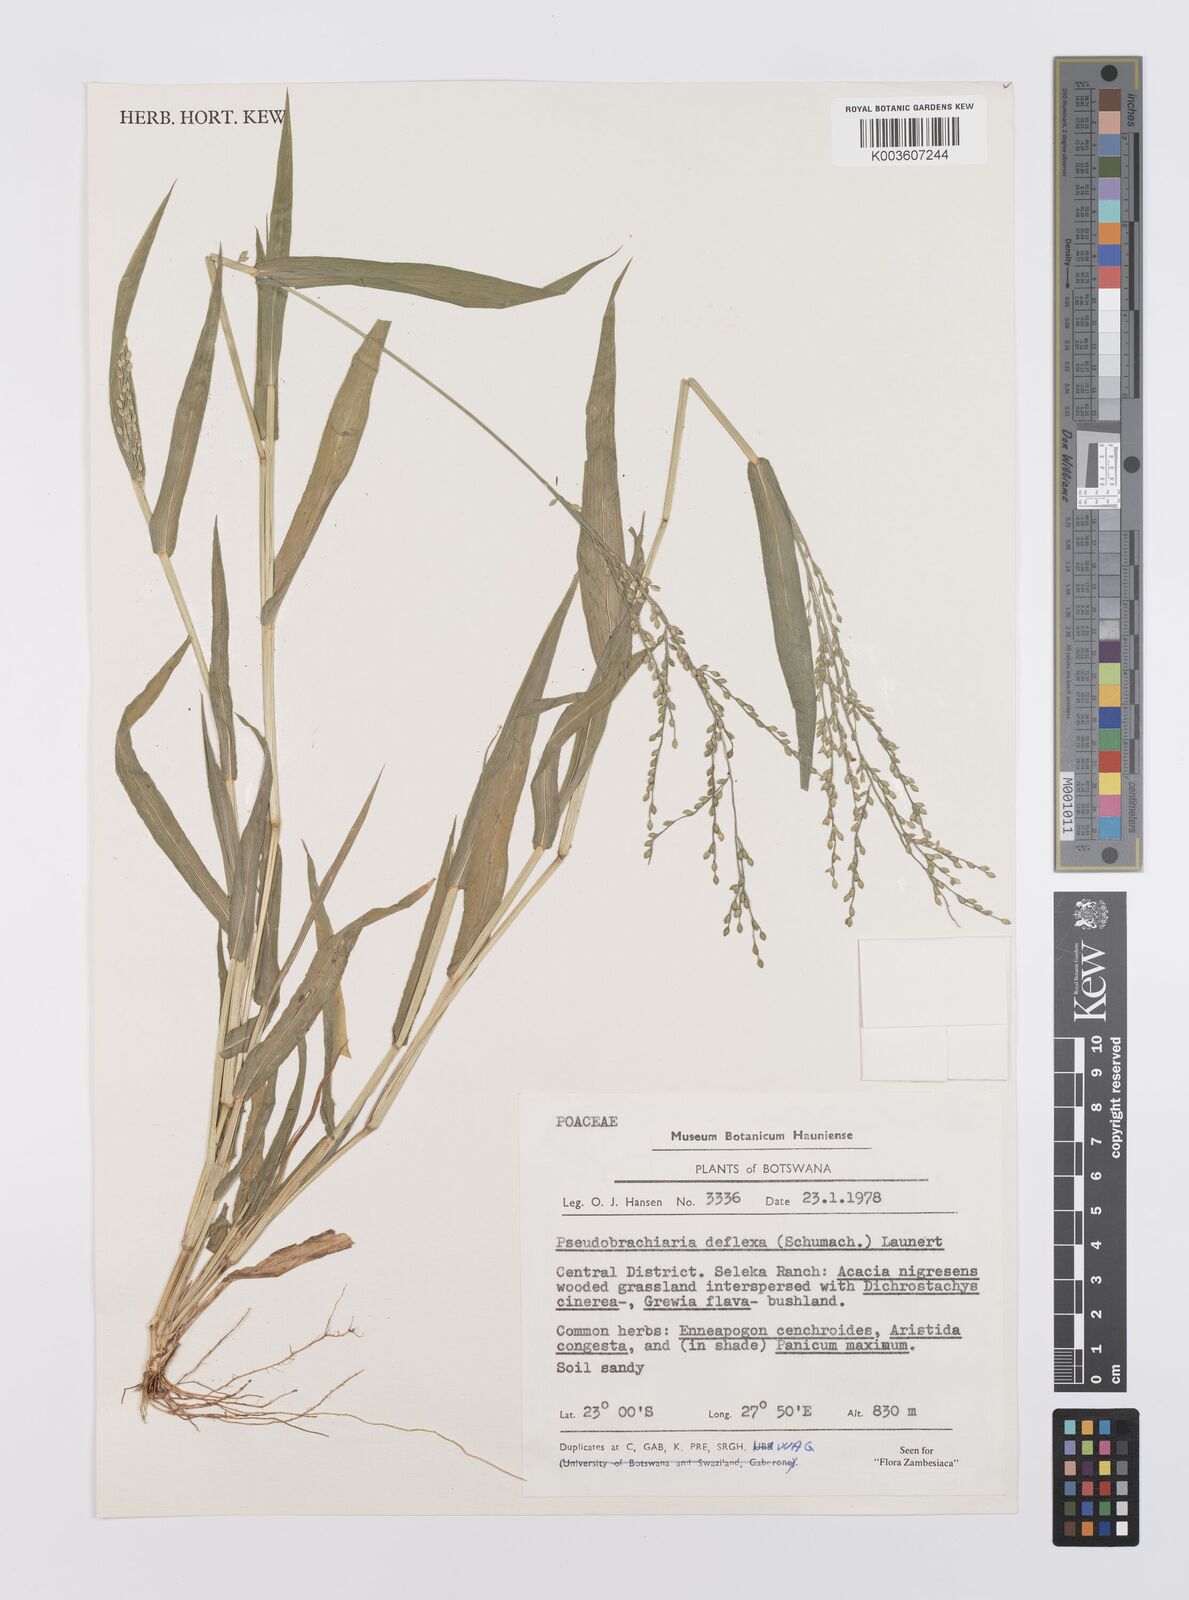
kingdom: Plantae
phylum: Tracheophyta
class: Liliopsida
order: Poales
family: Poaceae
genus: Urochloa
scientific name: Urochloa deflexa
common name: Guinea millet
